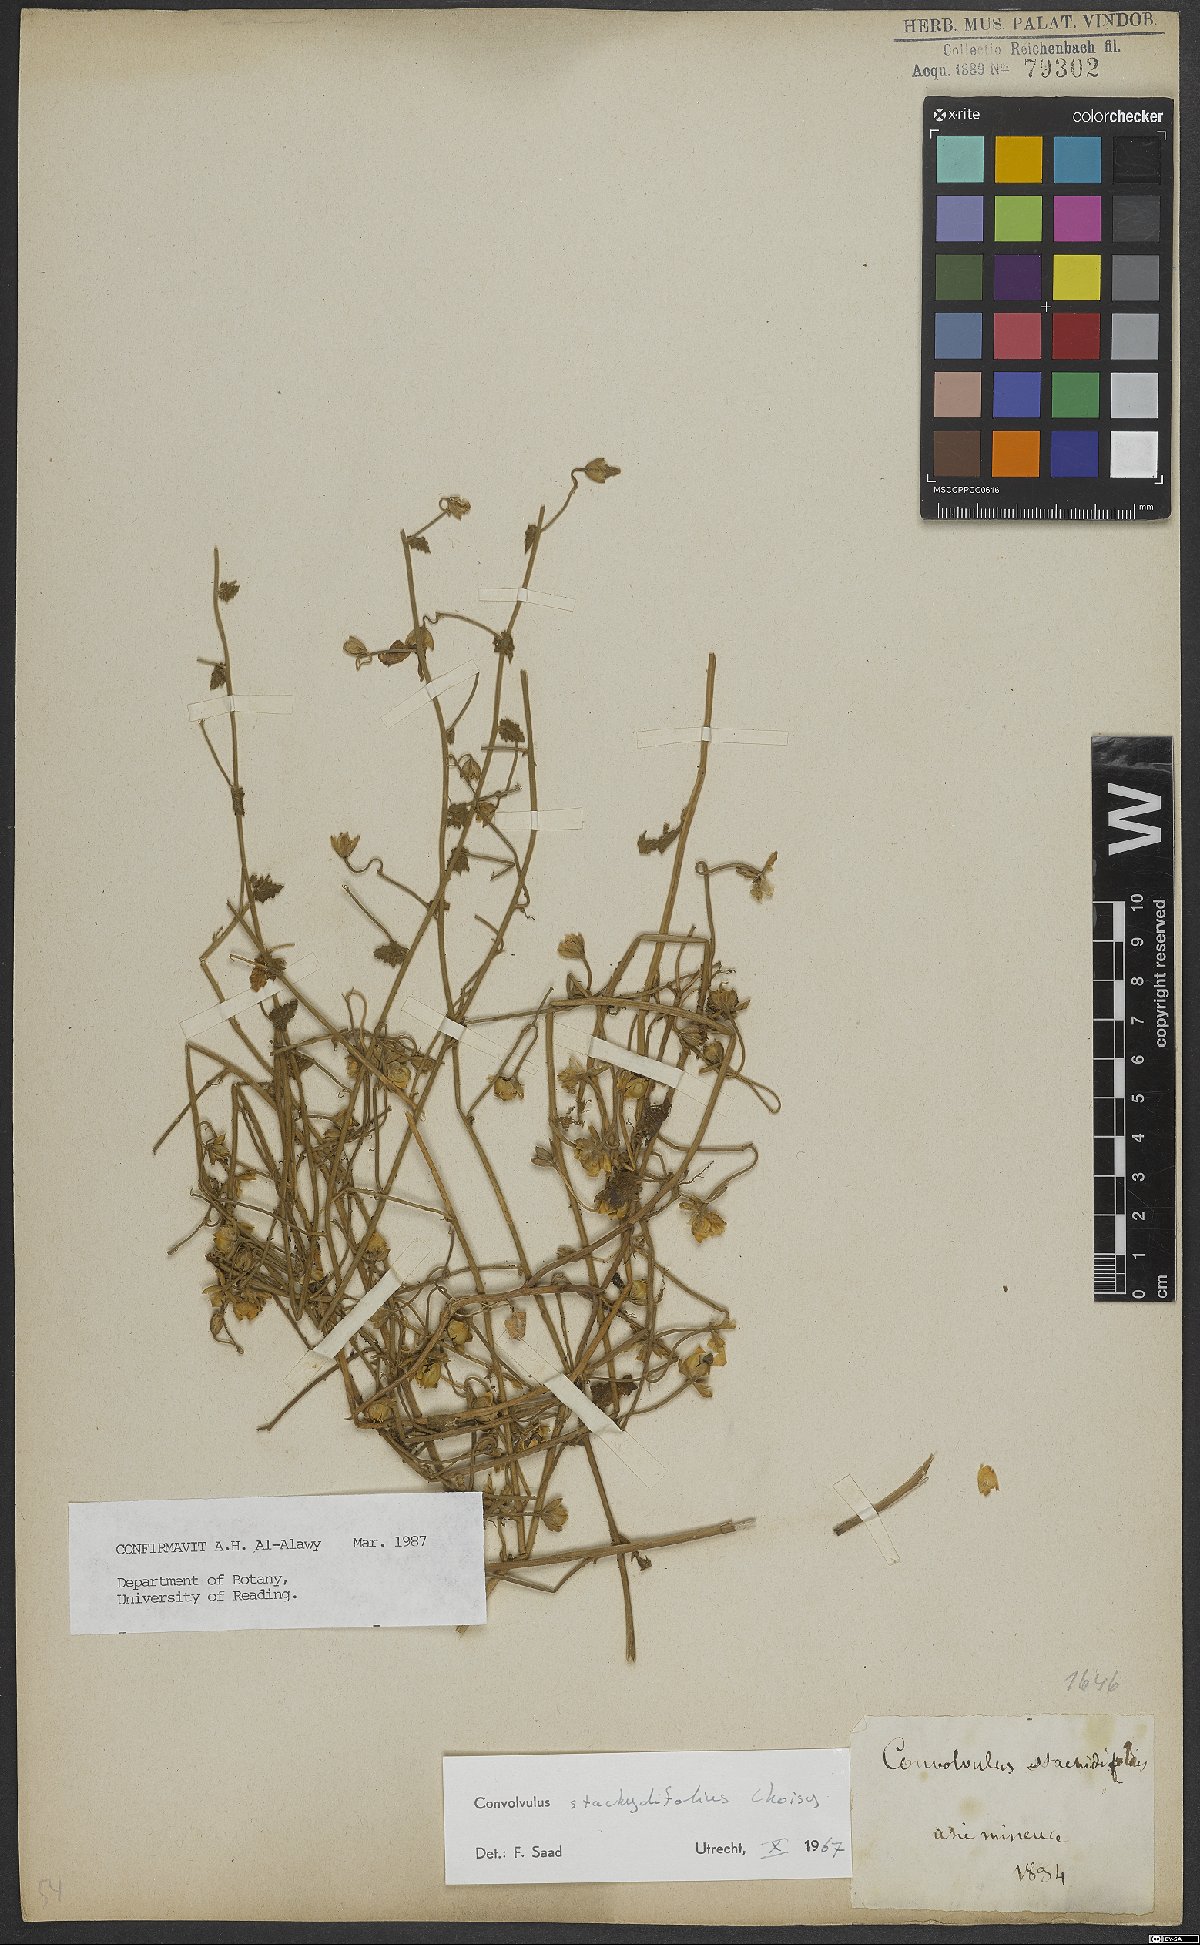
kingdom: Plantae
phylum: Tracheophyta
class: Magnoliopsida
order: Solanales
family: Convolvulaceae
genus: Convolvulus
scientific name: Convolvulus stachydifolius
